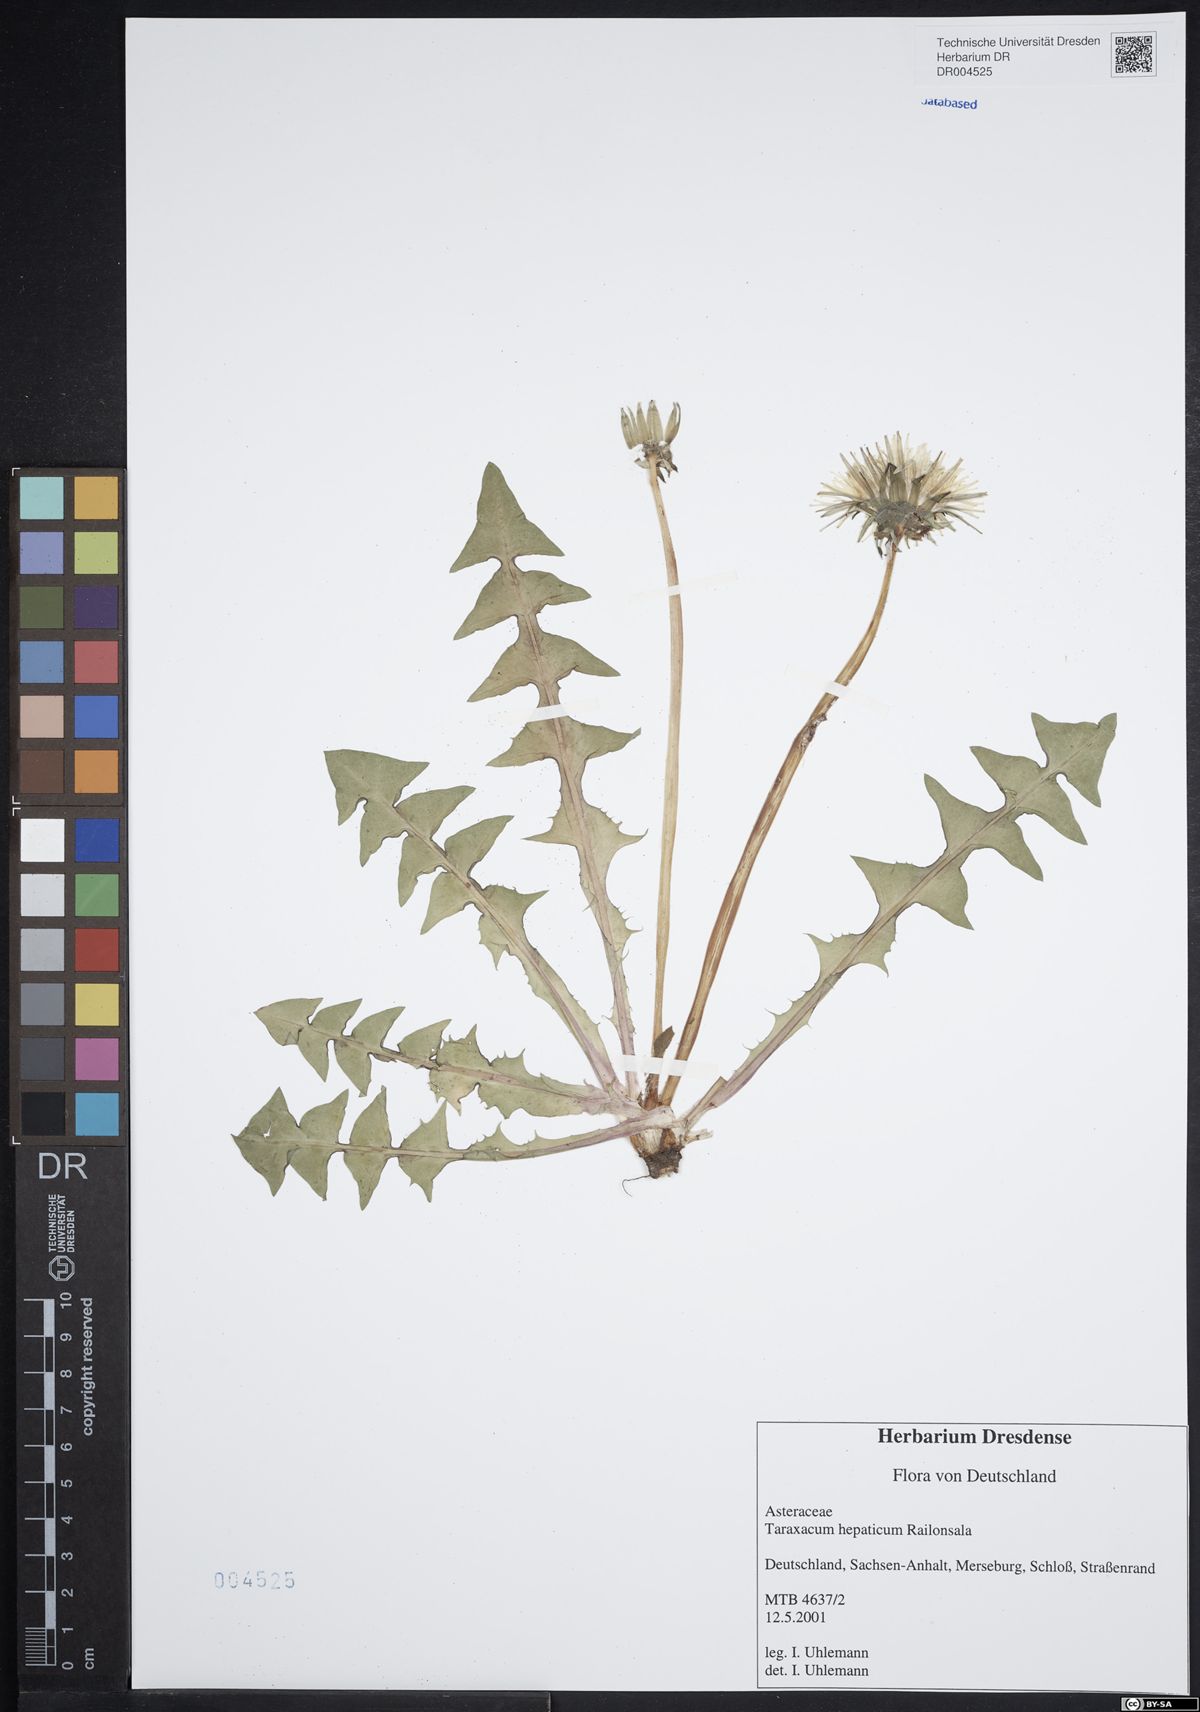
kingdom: Plantae
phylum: Tracheophyta
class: Magnoliopsida
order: Asterales
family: Asteraceae
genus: Taraxacum
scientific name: Taraxacum hepaticum
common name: Regular-lobed dandelion
